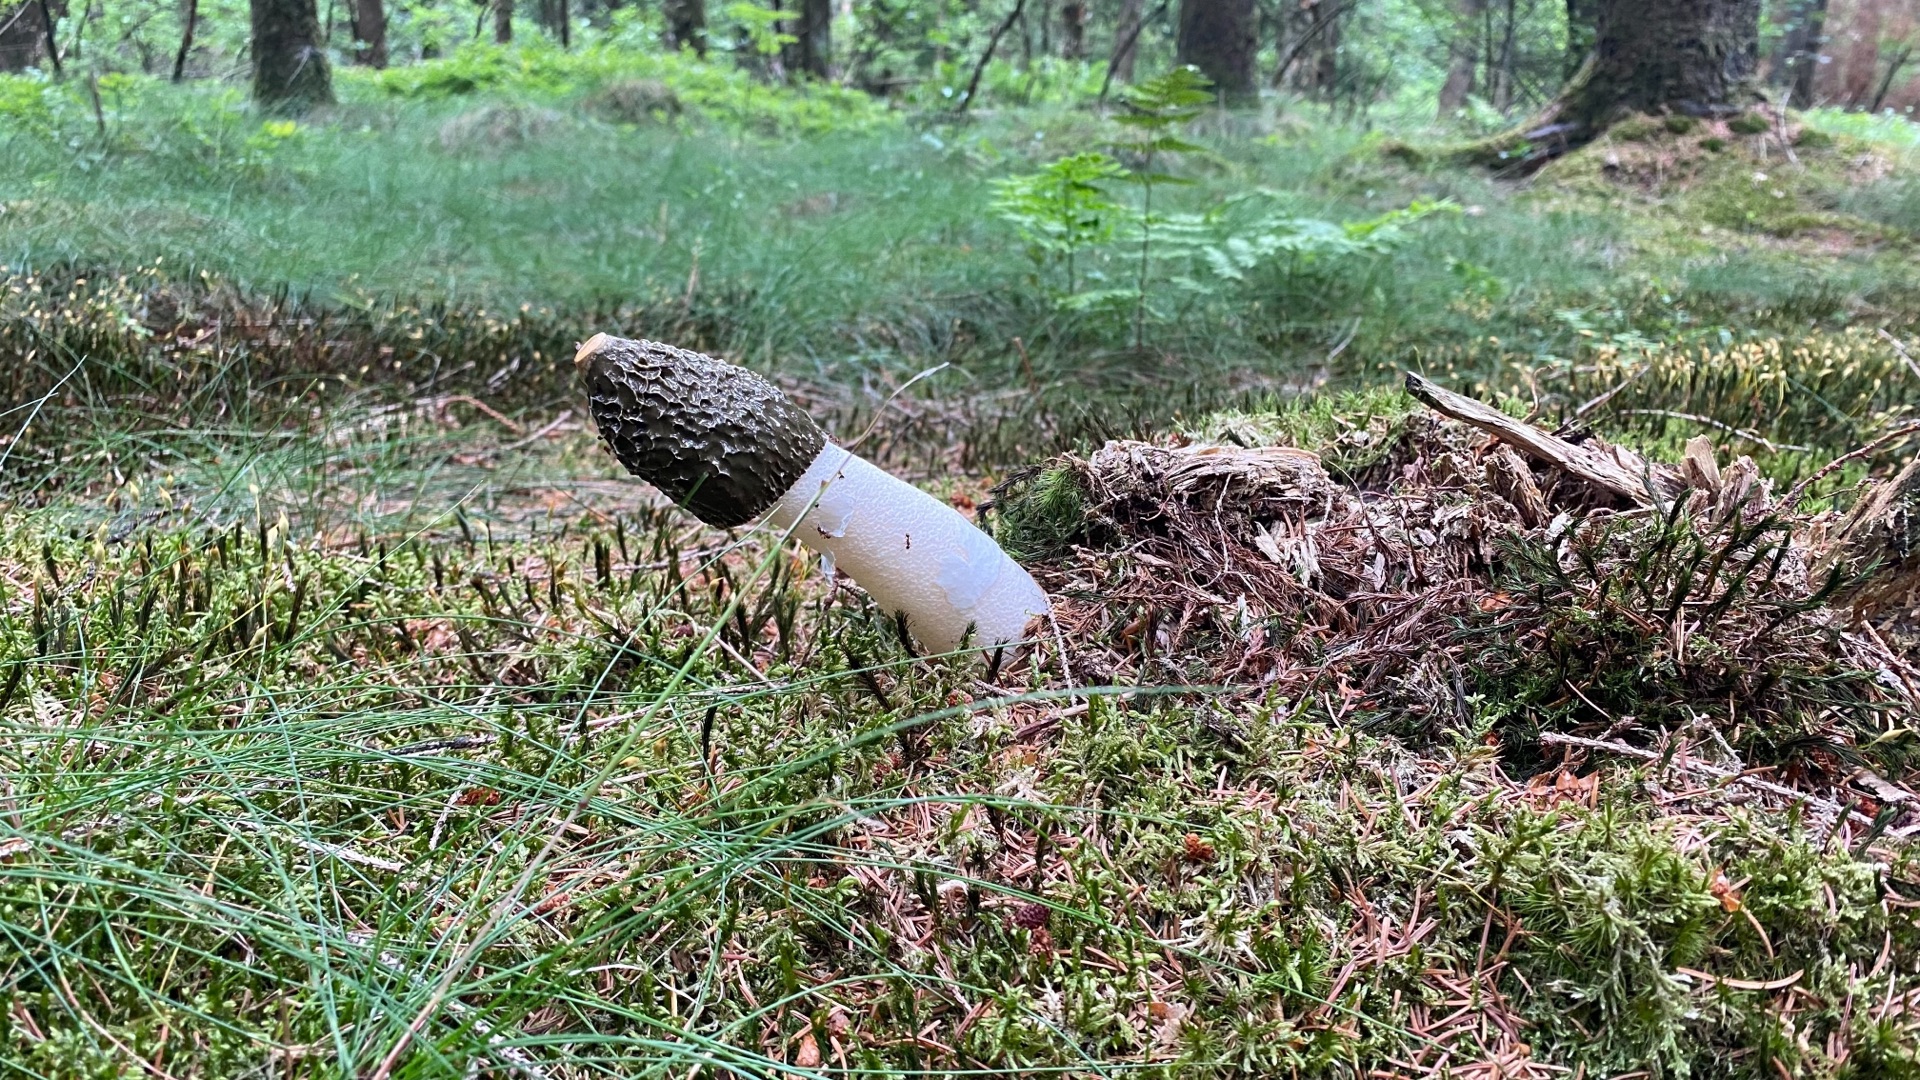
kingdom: Fungi
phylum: Basidiomycota
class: Agaricomycetes
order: Phallales
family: Phallaceae
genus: Phallus
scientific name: Phallus impudicus
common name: Almindelig stinksvamp
